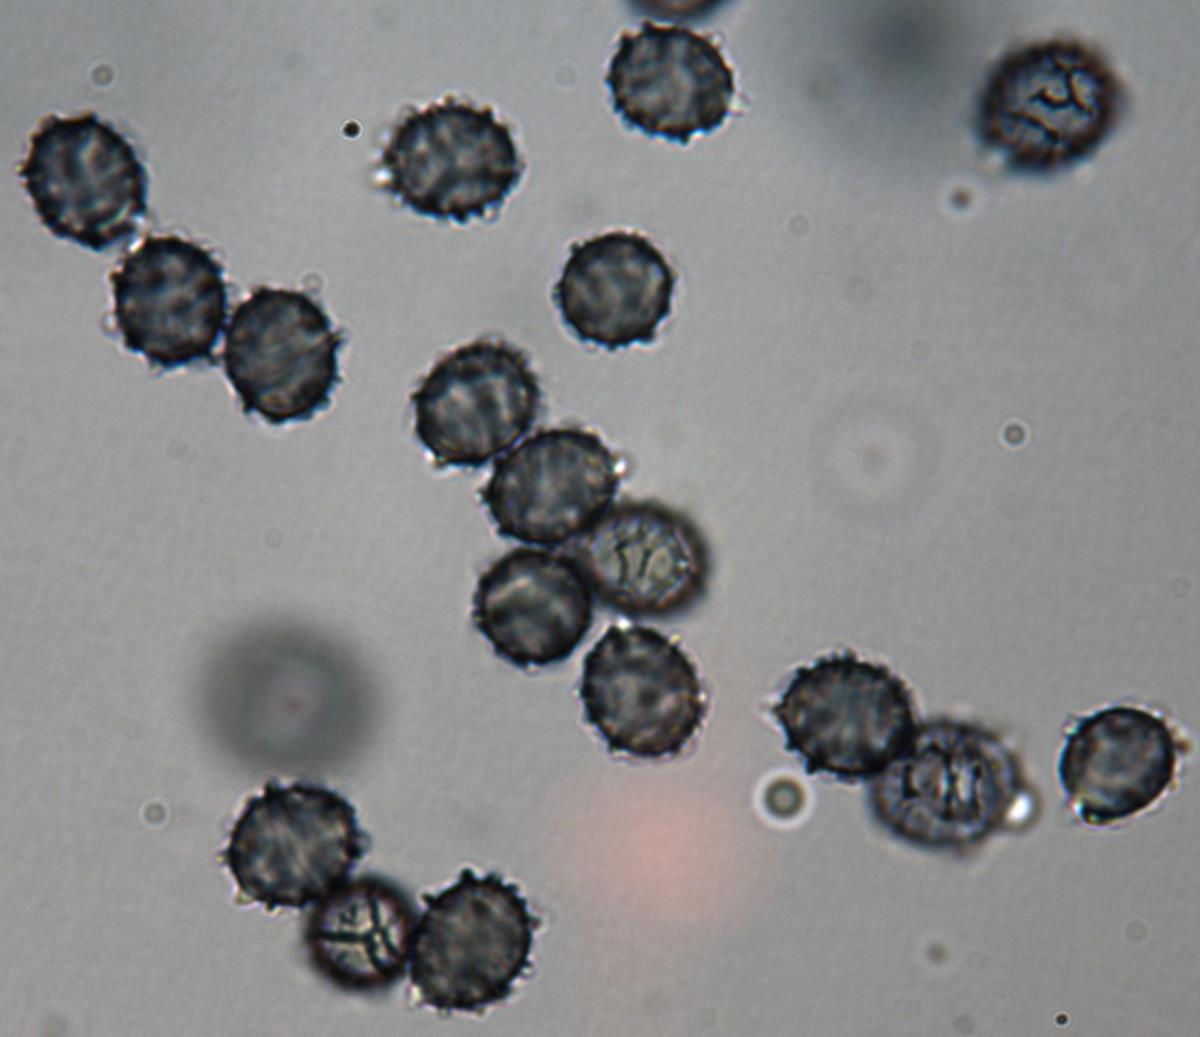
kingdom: Fungi
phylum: Basidiomycota
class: Agaricomycetes
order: Russulales
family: Russulaceae
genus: Zelleromyces
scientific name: Zelleromyces
